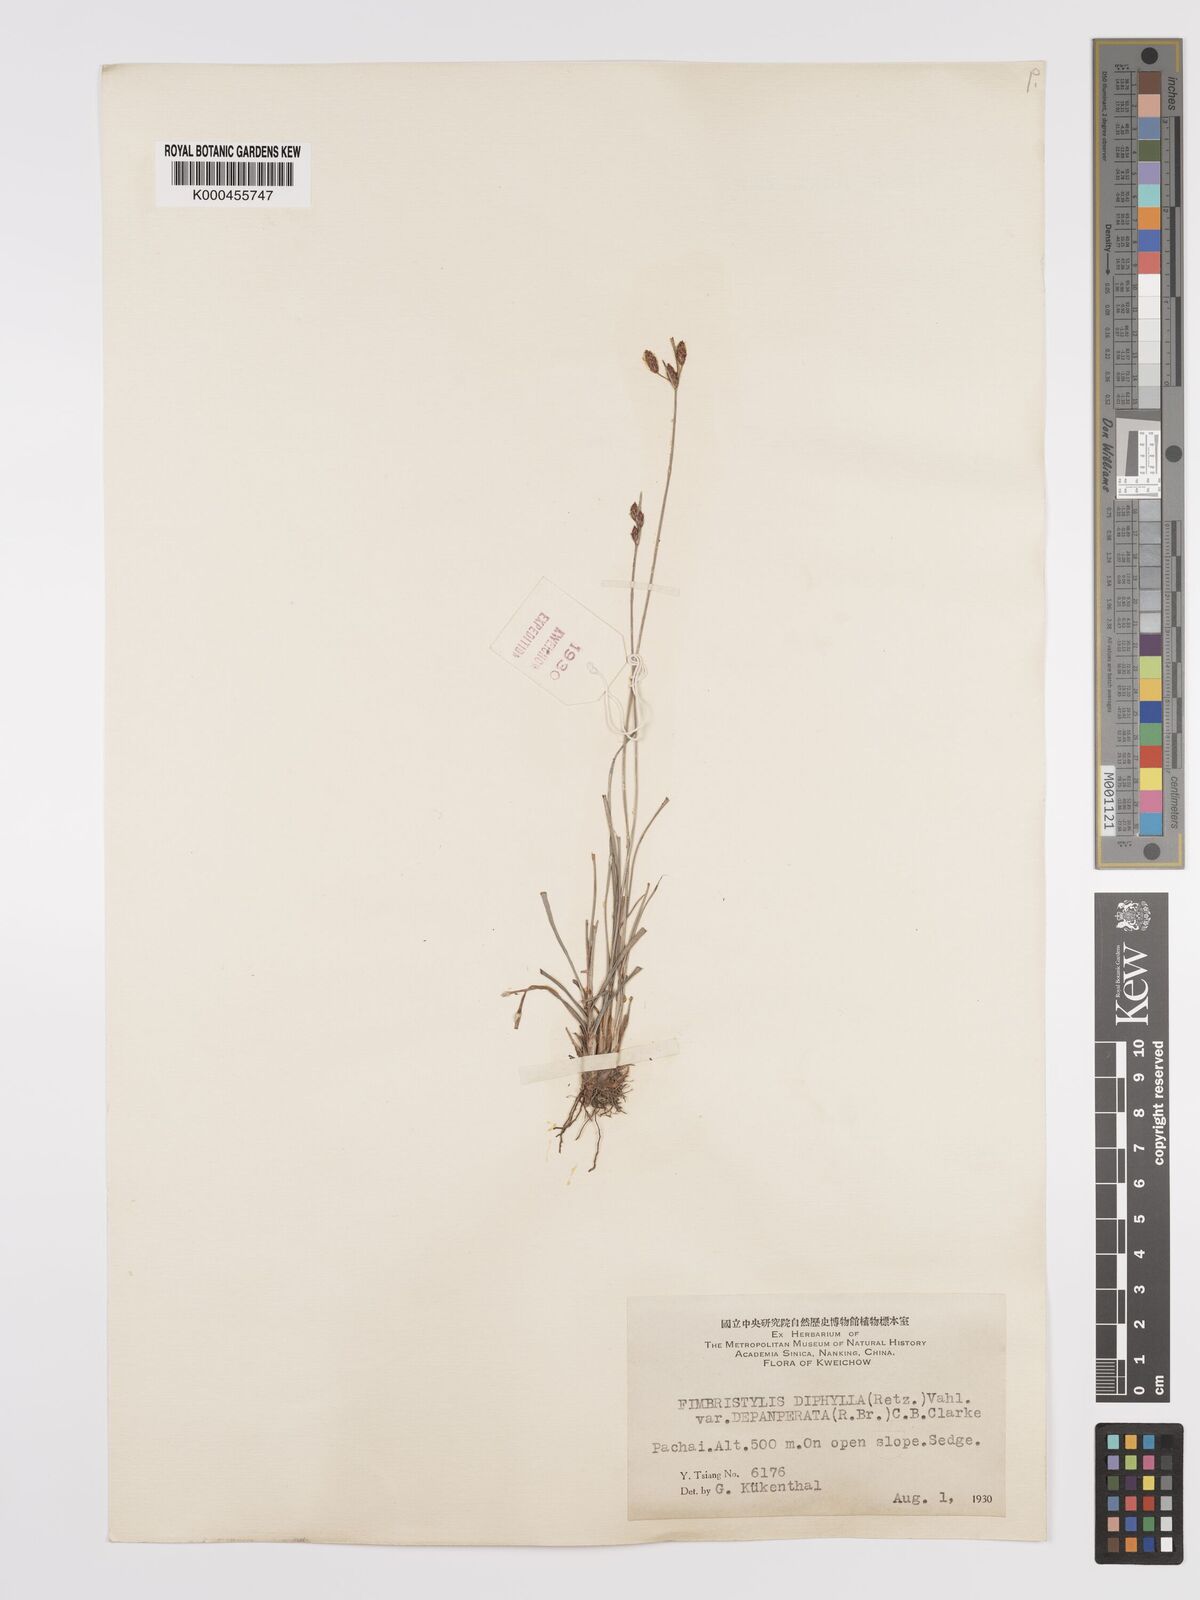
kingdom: Plantae
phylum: Tracheophyta
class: Liliopsida
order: Poales
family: Cyperaceae
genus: Fimbristylis
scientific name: Fimbristylis dichotoma
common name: Forked fimbry
